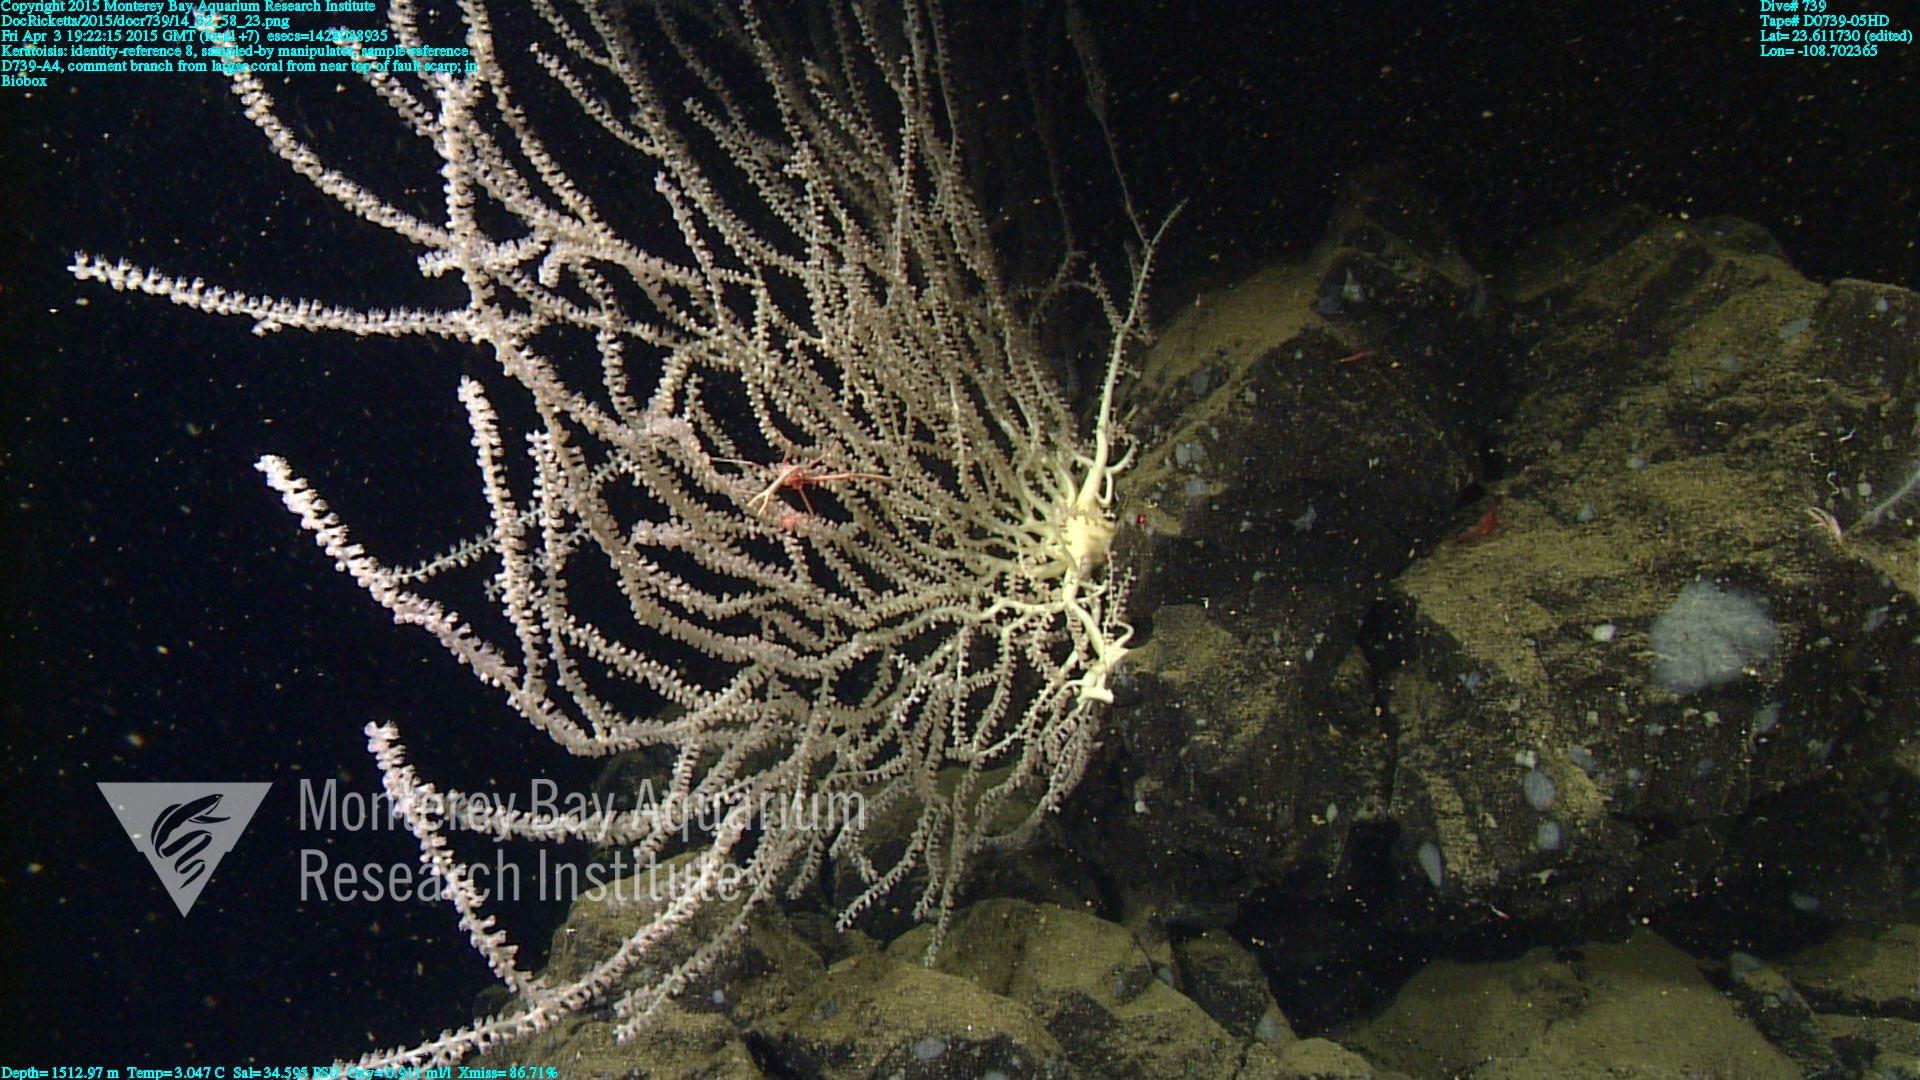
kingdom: Animalia
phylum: Cnidaria
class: Anthozoa
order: Scleralcyonacea
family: Keratoisididae
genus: Keratoisis
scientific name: Keratoisis
